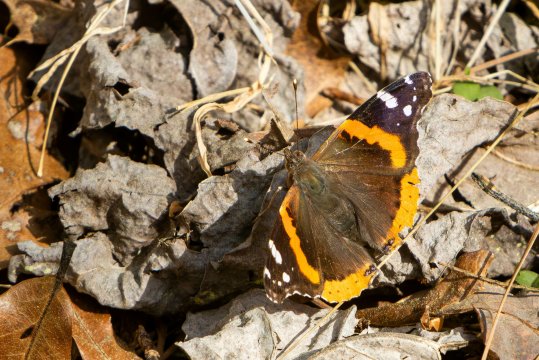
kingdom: Animalia
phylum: Arthropoda
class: Insecta
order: Lepidoptera
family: Nymphalidae
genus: Vanessa
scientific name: Vanessa atalanta
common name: Red Admiral
